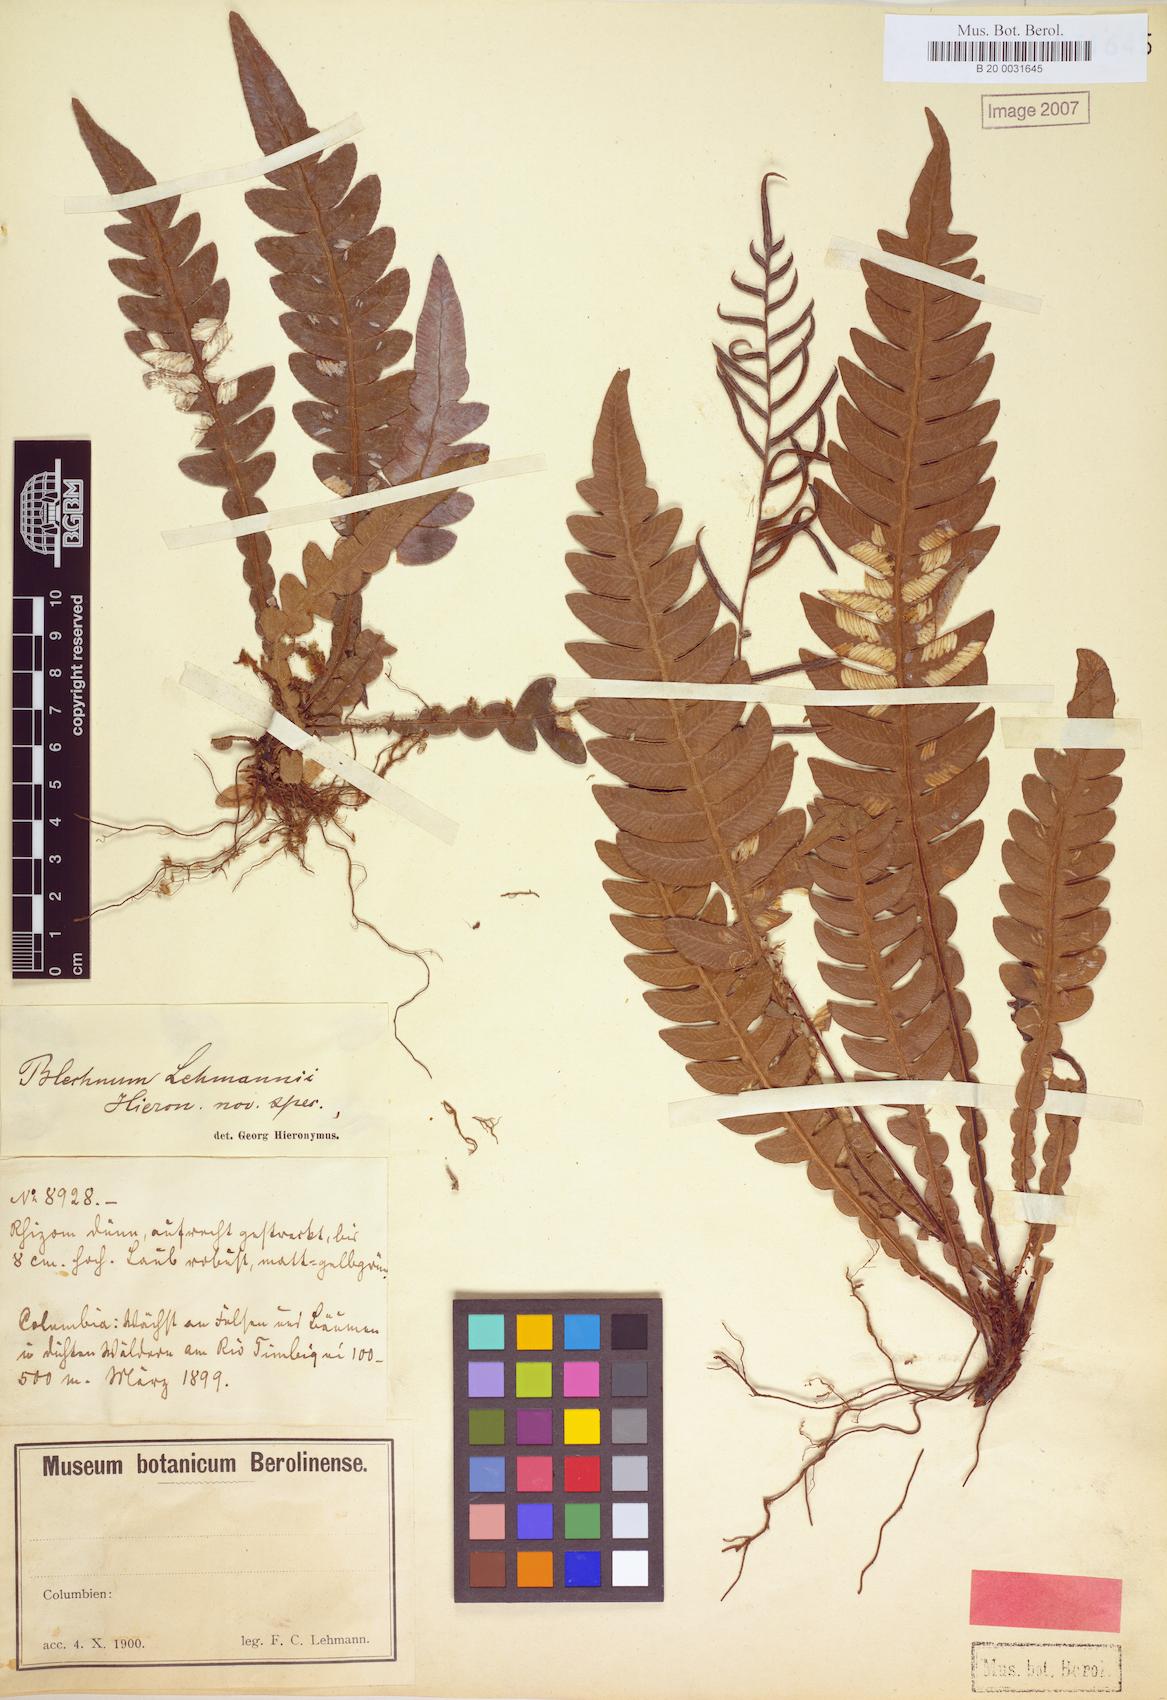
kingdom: Plantae
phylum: Tracheophyta
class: Polypodiopsida
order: Polypodiales
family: Blechnaceae
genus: Austroblechnum
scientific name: Austroblechnum lehmannii
